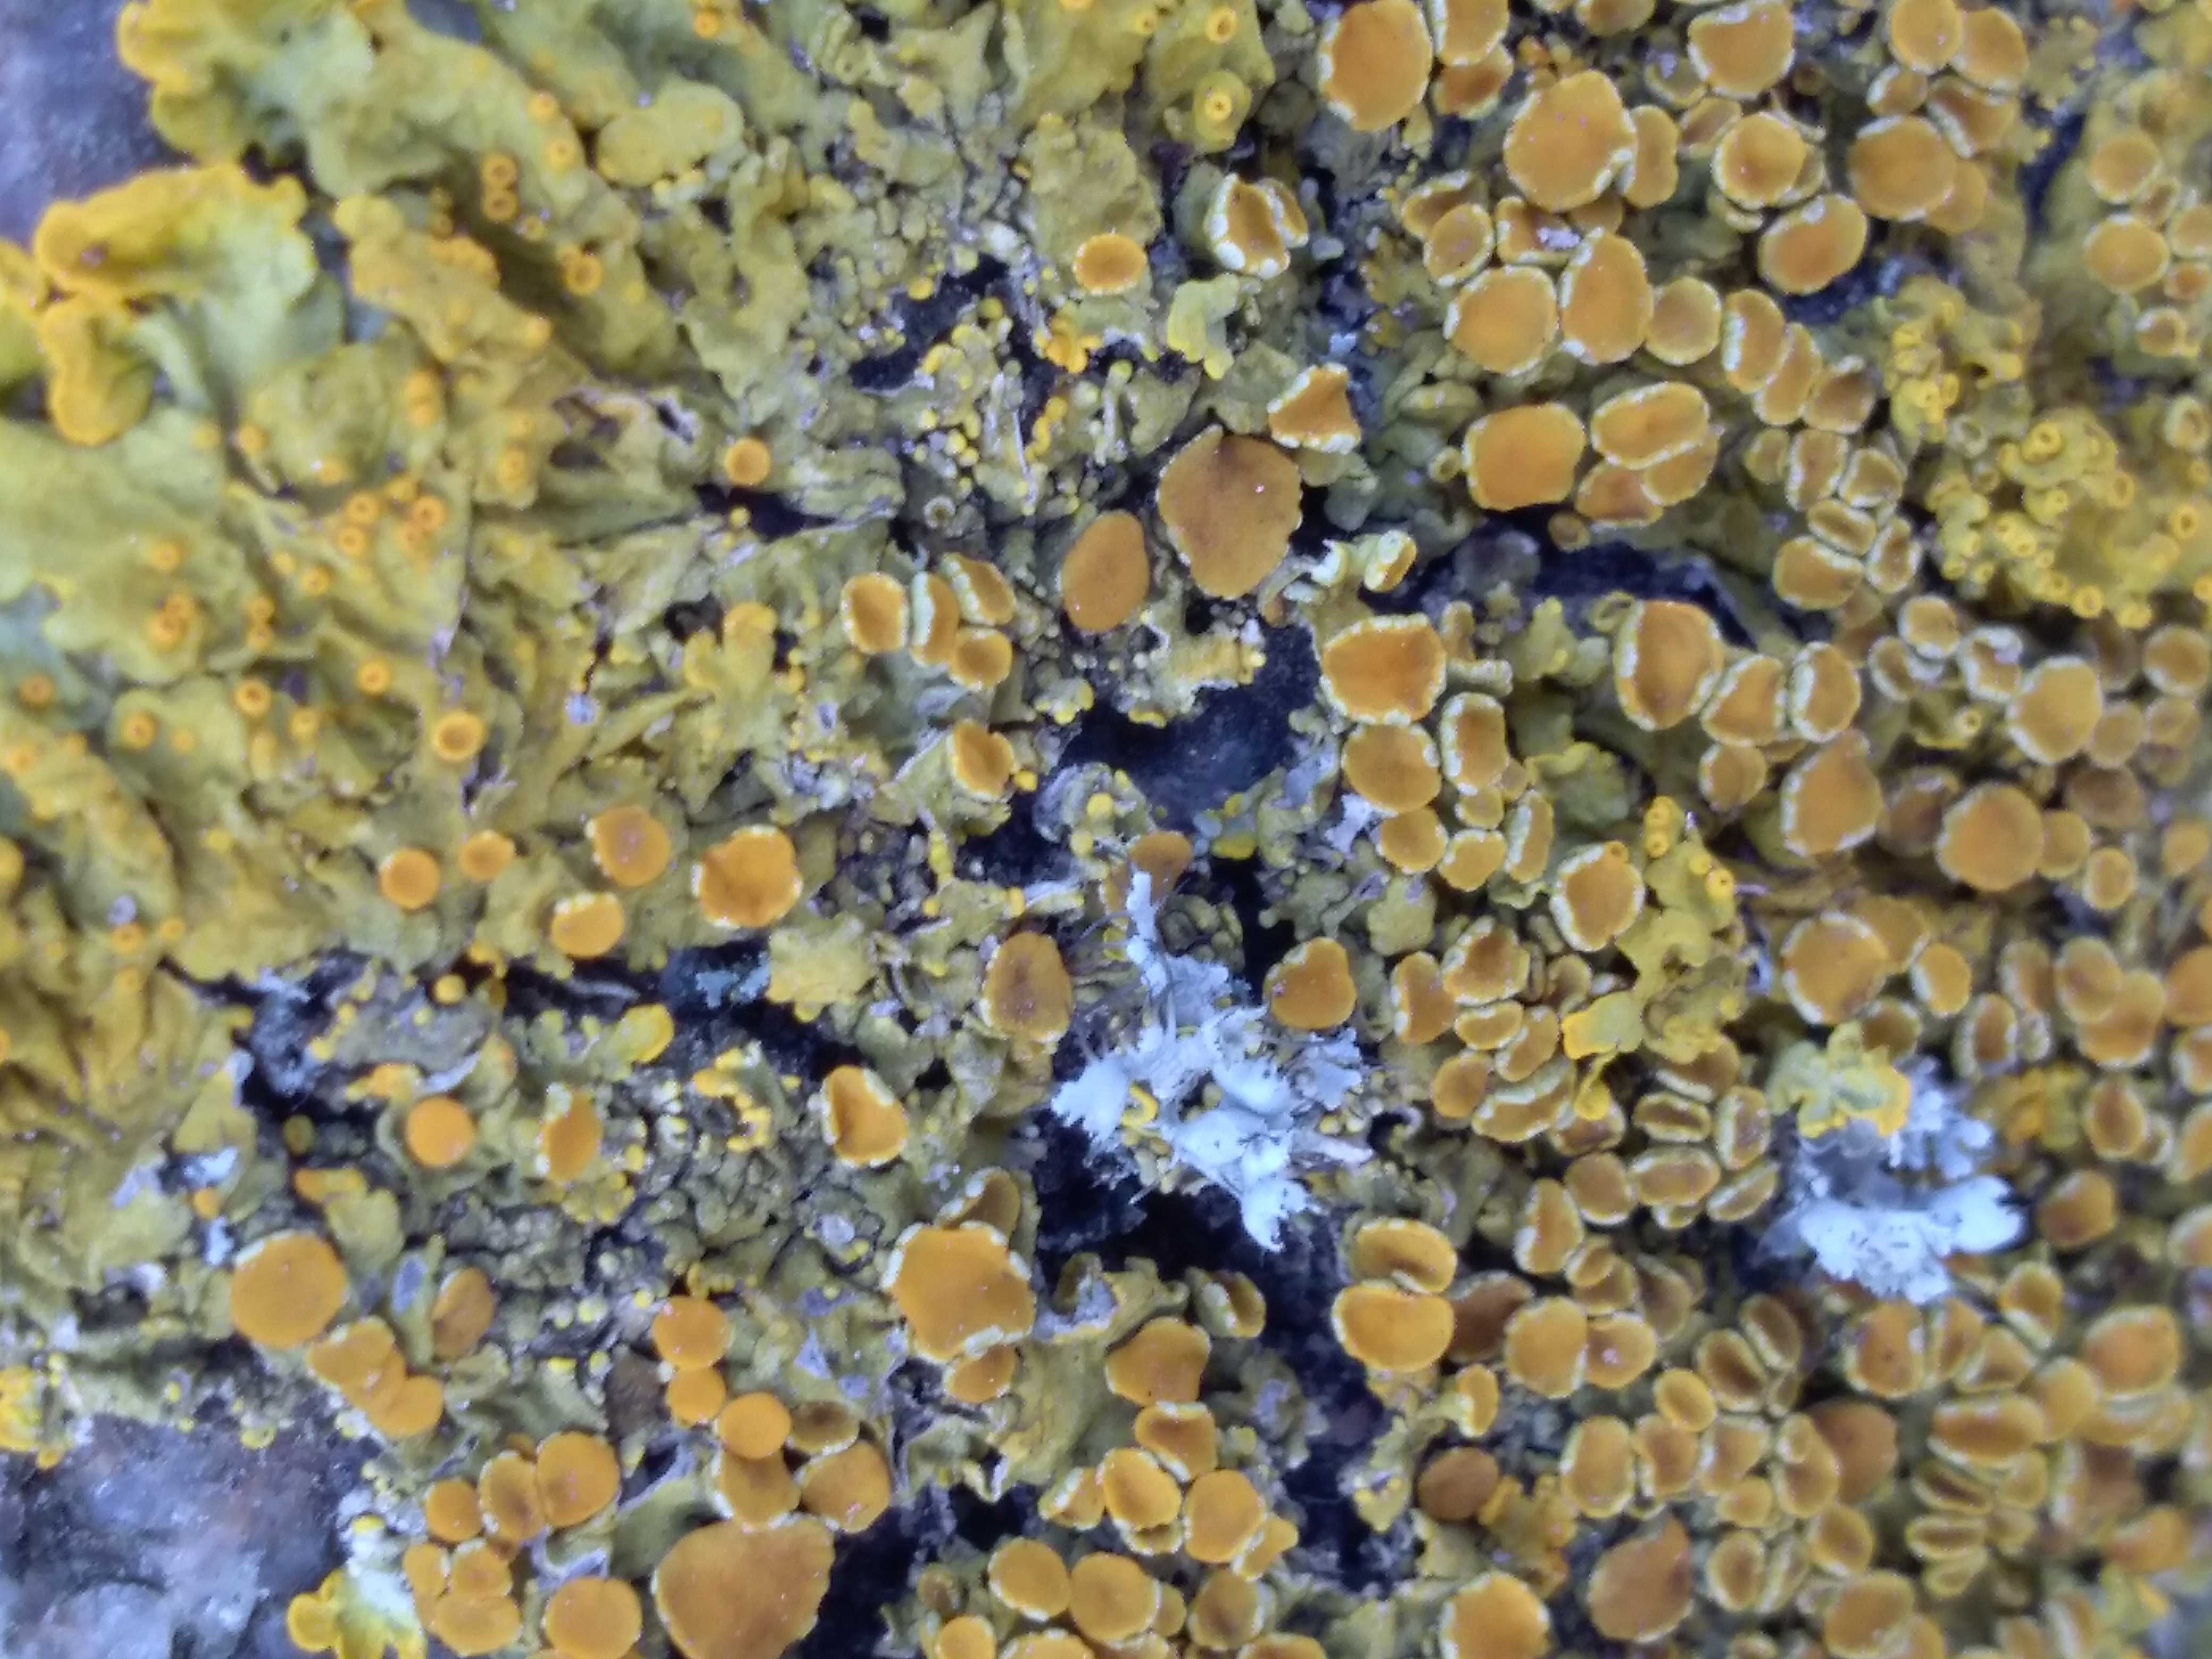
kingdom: Fungi
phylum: Ascomycota
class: Lecanoromycetes
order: Teloschistales
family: Teloschistaceae
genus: Xanthoria
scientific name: Xanthoria parietina
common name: almindelig væggelav
